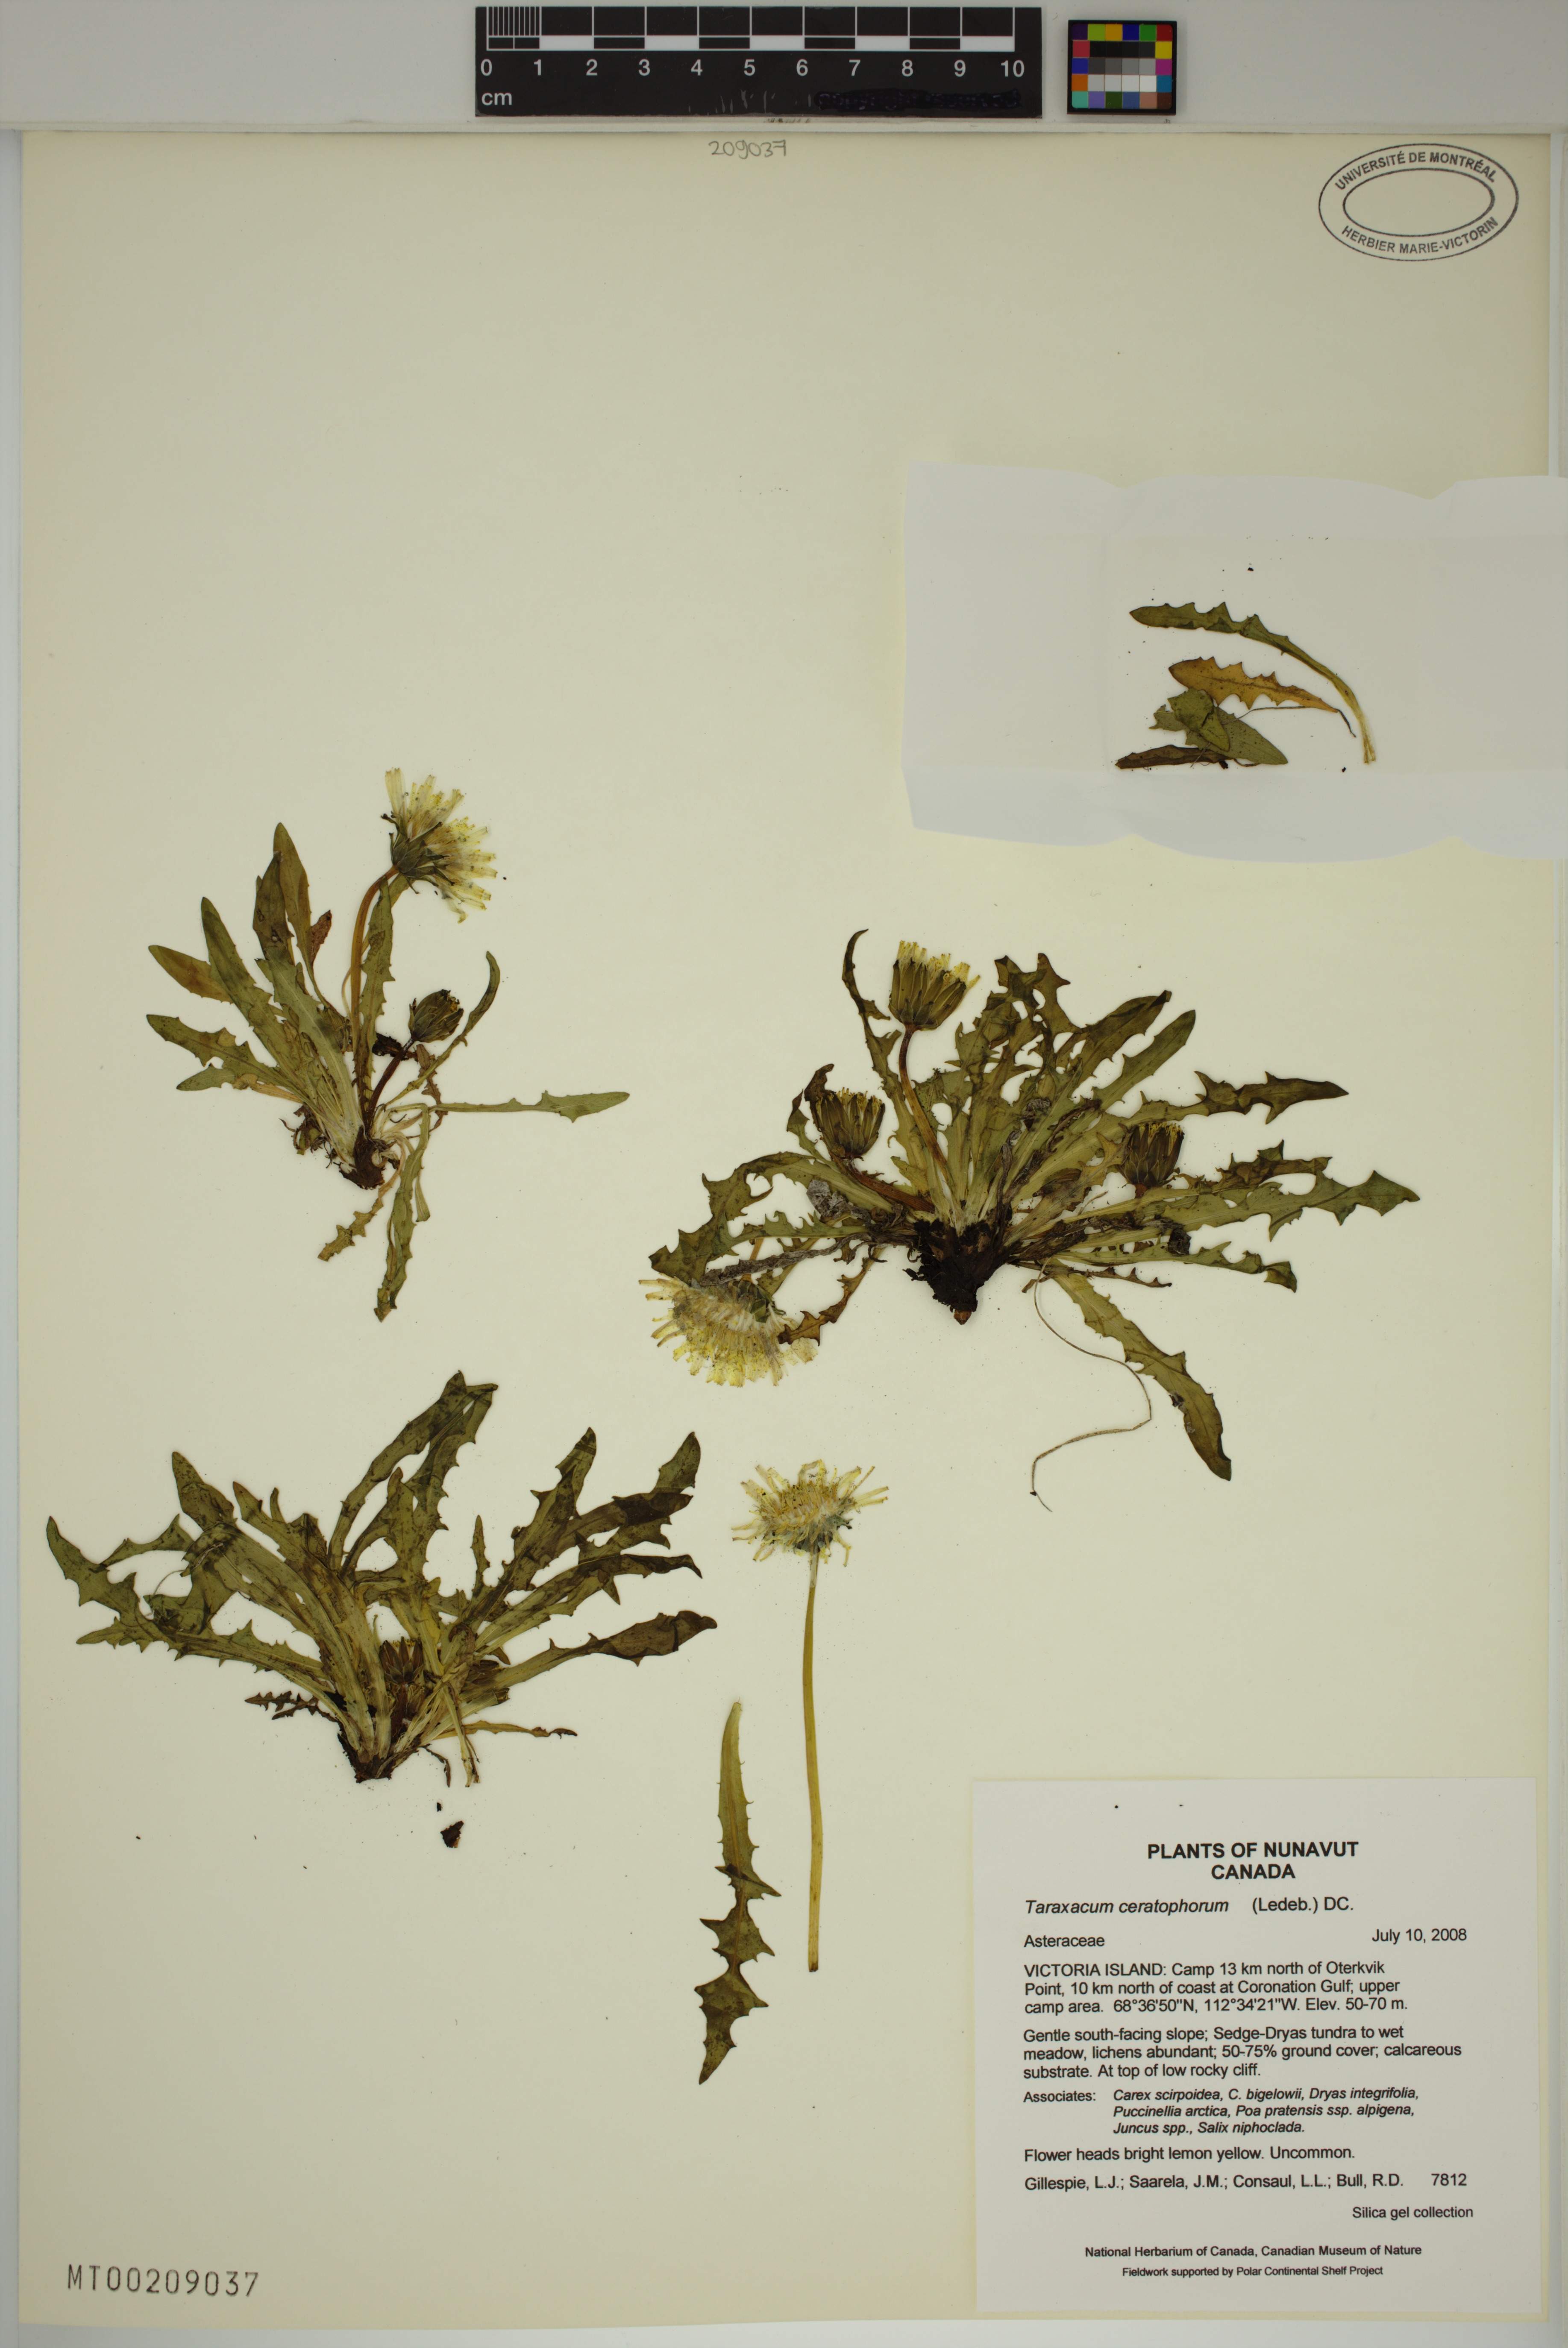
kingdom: Plantae
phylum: Tracheophyta
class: Magnoliopsida
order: Asterales
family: Asteraceae
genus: Taraxacum
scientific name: Taraxacum ceratophorum
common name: Horn-bearing dandelion
